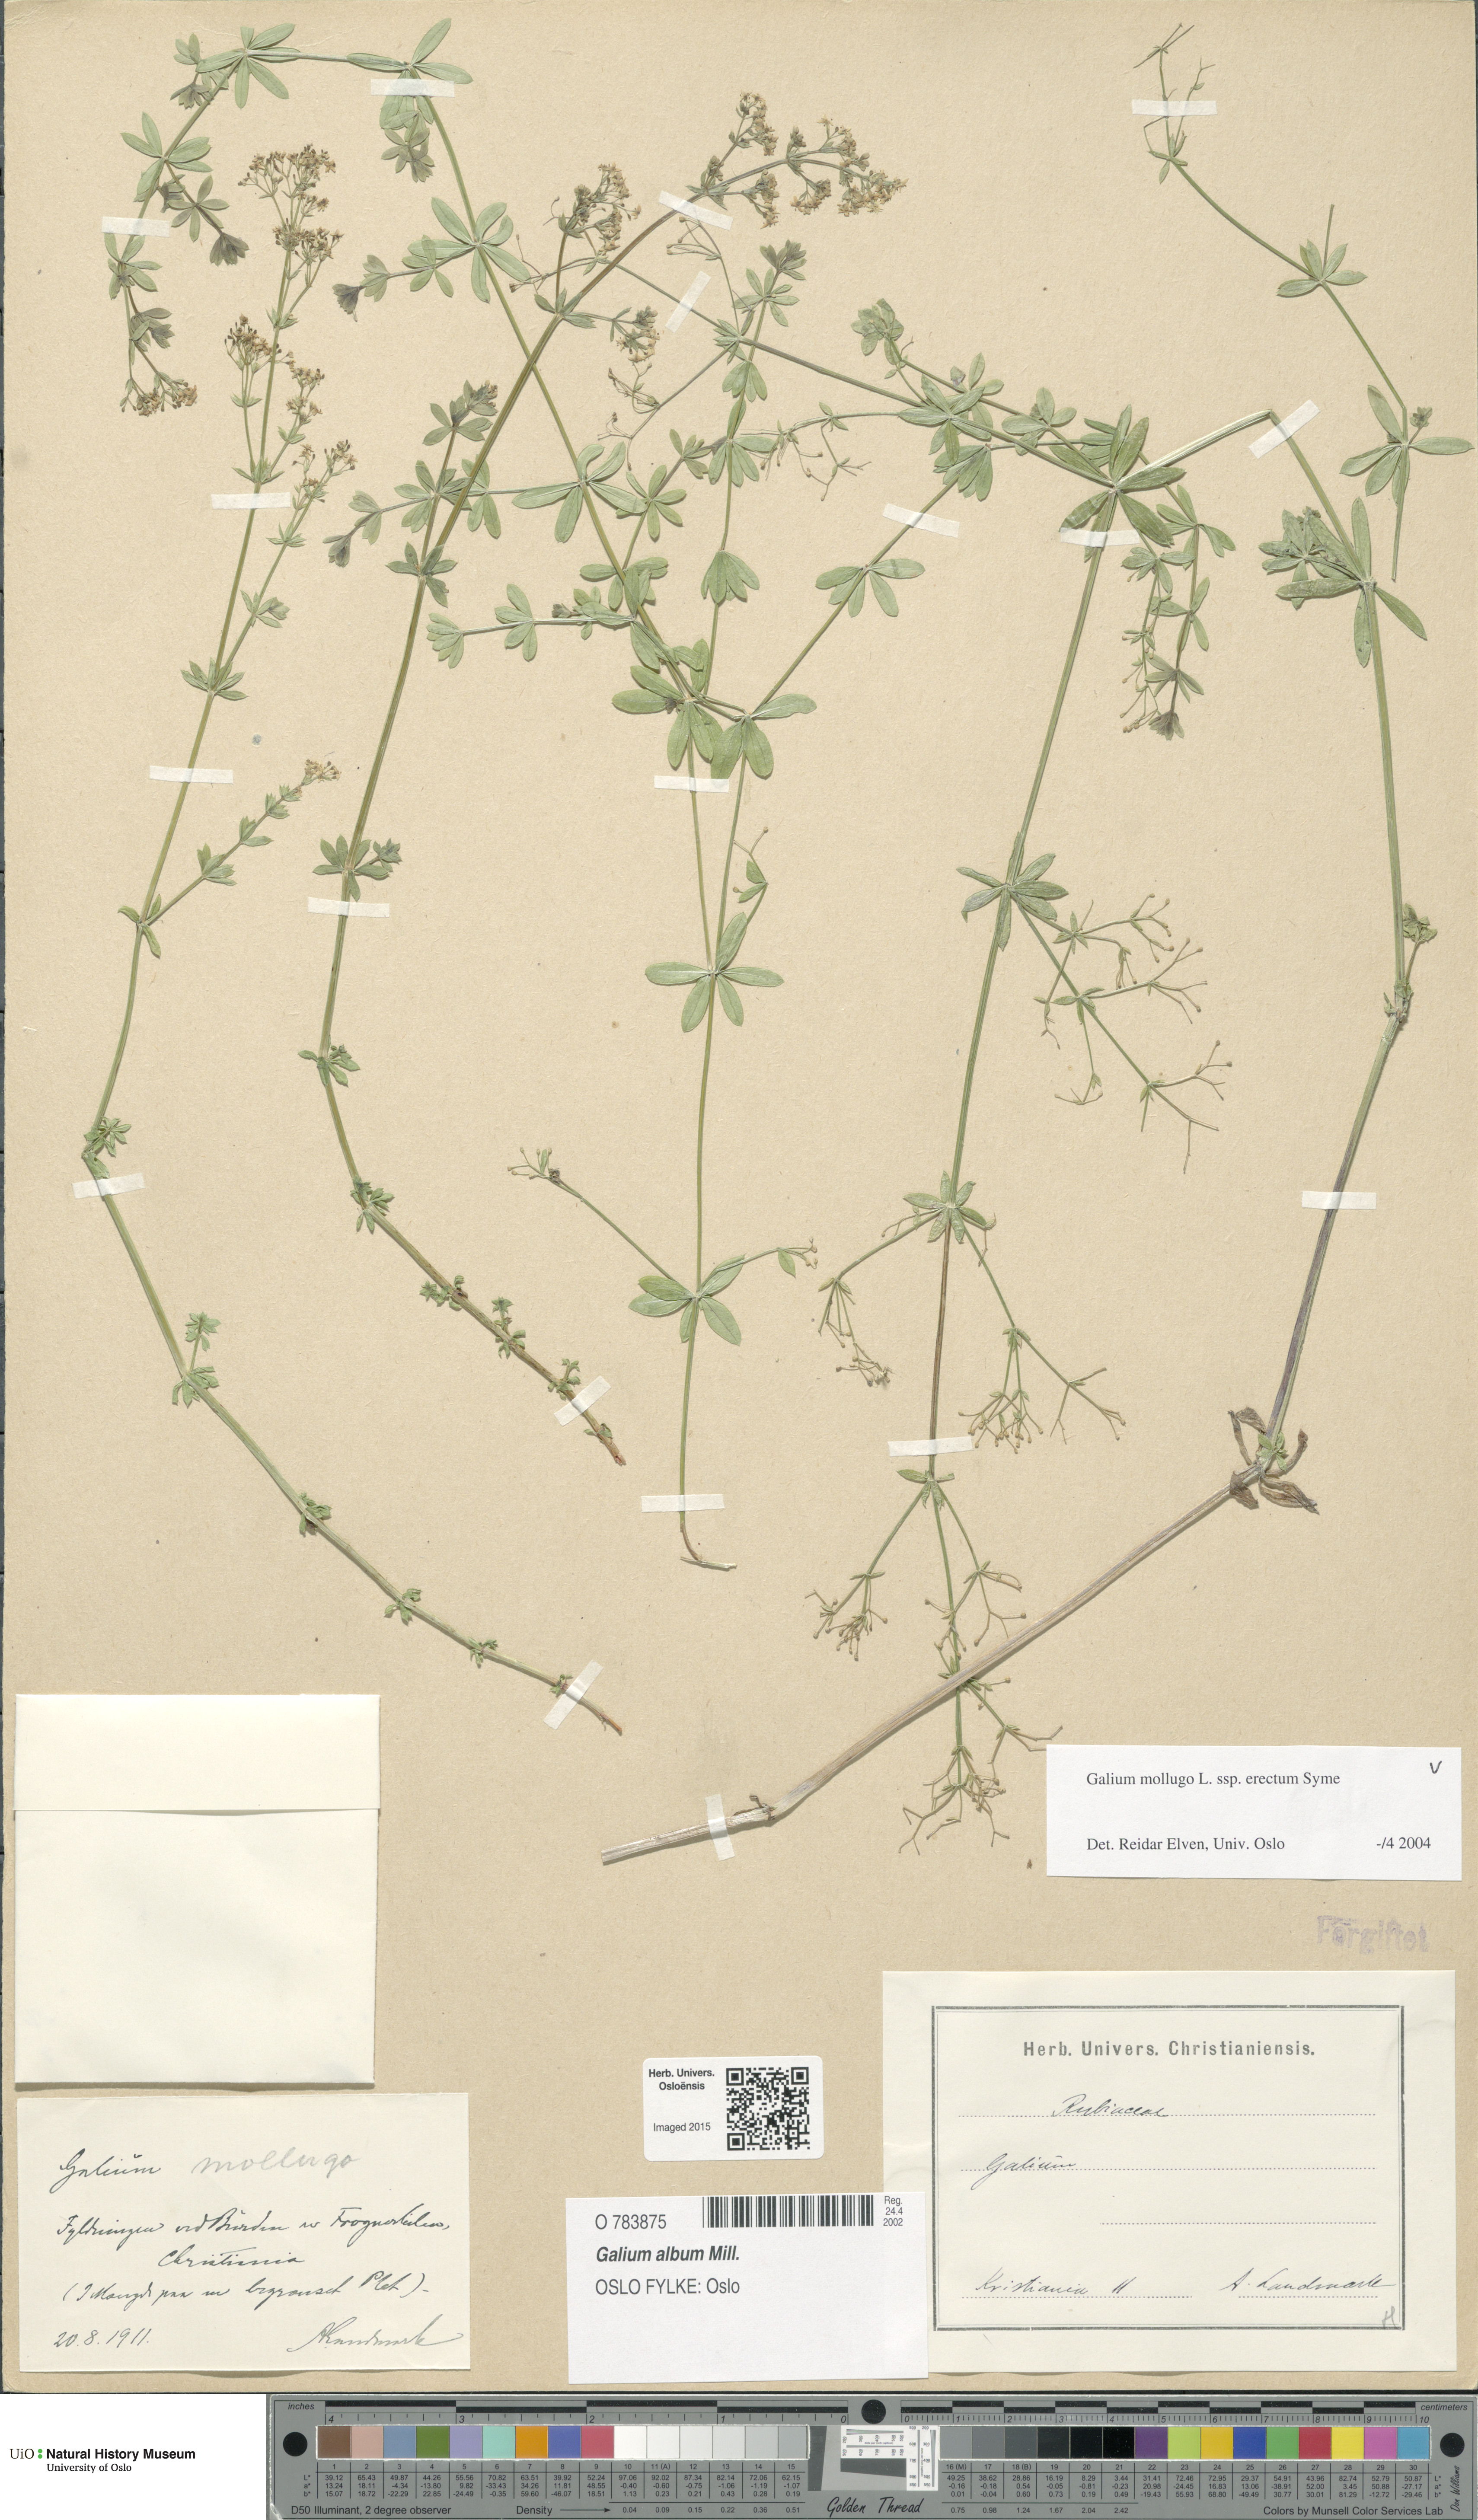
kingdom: Plantae
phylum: Tracheophyta
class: Magnoliopsida
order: Gentianales
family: Rubiaceae
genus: Galium
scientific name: Galium album
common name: White bedstraw
